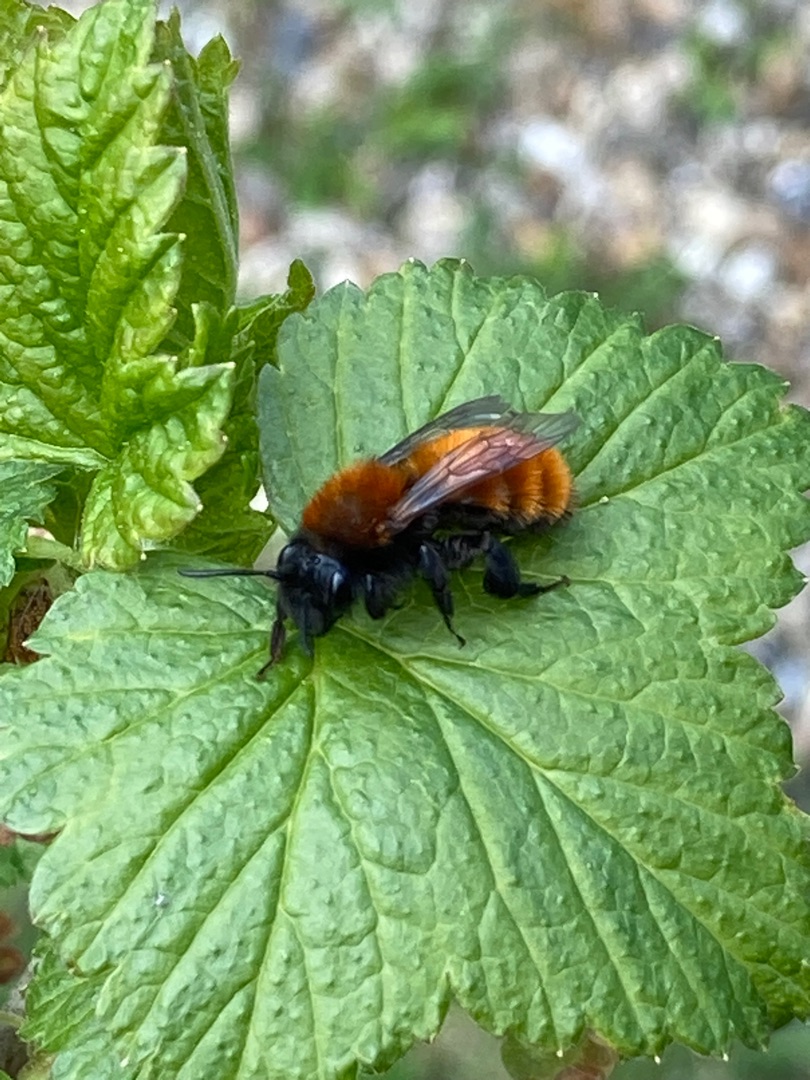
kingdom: Animalia
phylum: Arthropoda
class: Insecta
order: Hymenoptera
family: Andrenidae
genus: Andrena
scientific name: Andrena fulva
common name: Rødpelset jordbi
